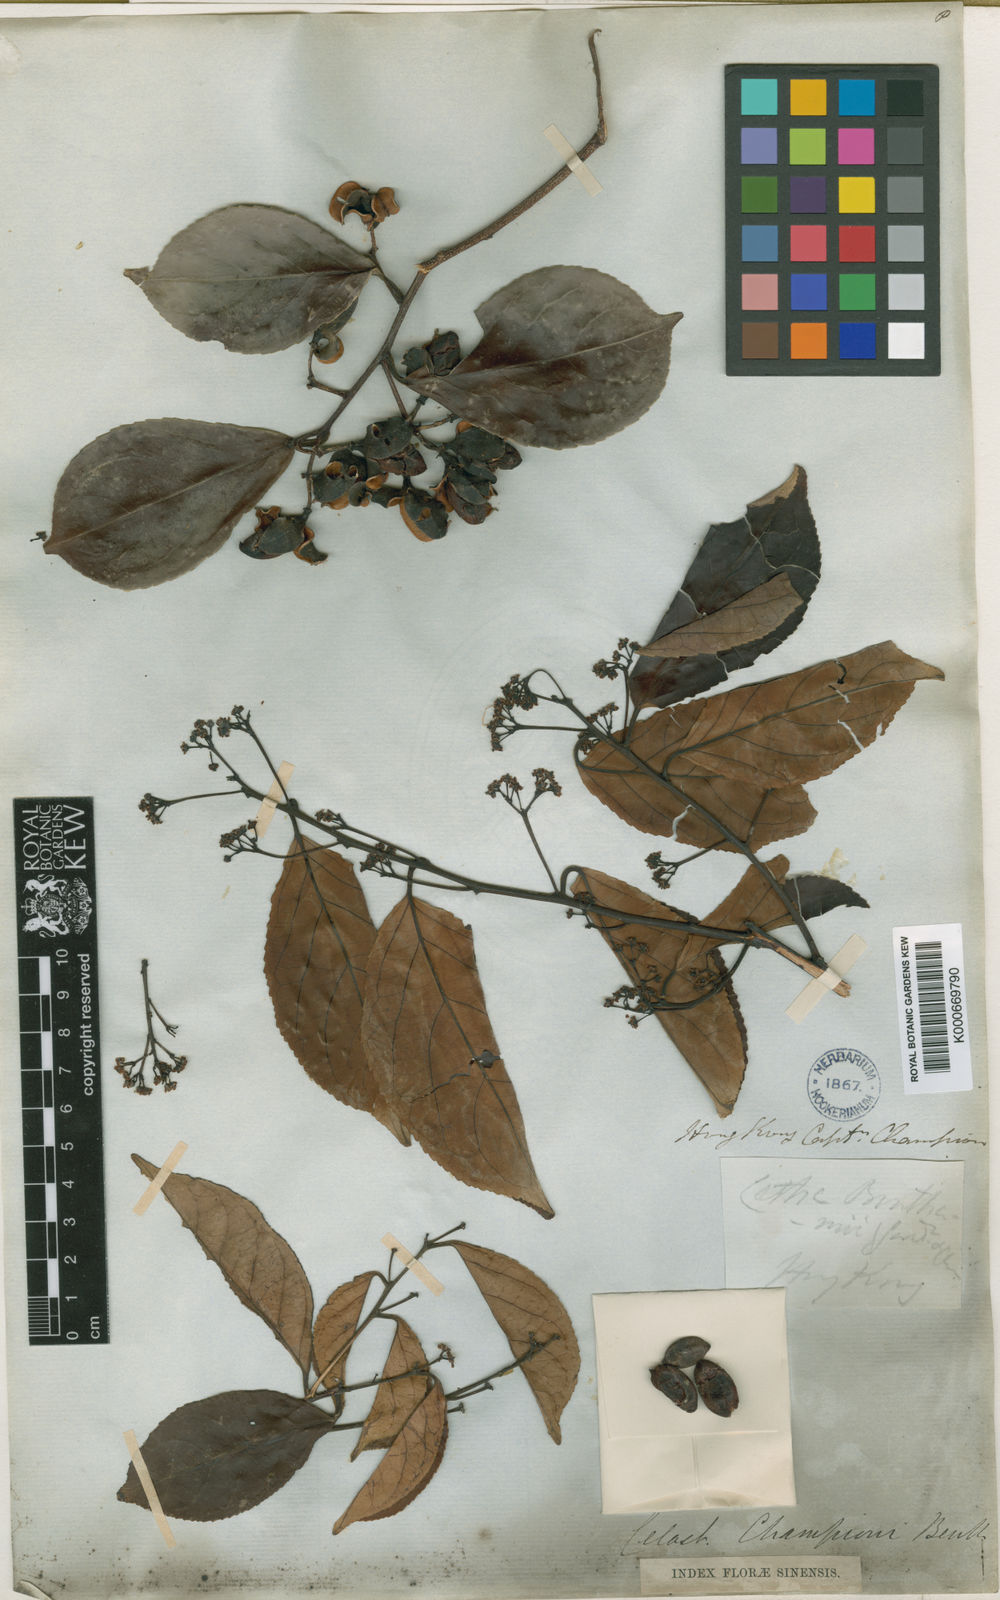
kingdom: Plantae
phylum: Tracheophyta
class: Magnoliopsida
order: Celastrales
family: Celastraceae
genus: Celastrus
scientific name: Celastrus monospermus
